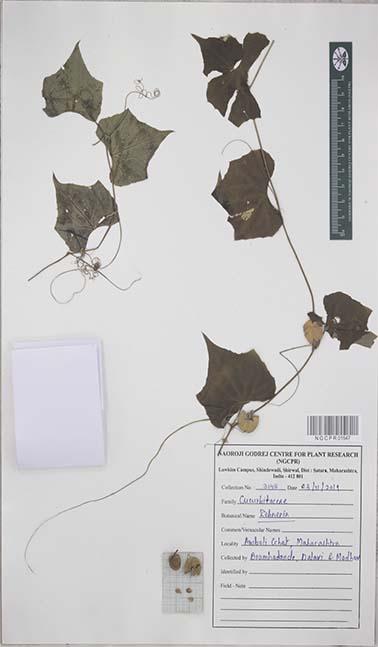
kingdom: Plantae
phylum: Tracheophyta
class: Magnoliopsida
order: Cucurbitales
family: Cucurbitaceae
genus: Zehneria
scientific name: Zehneria
